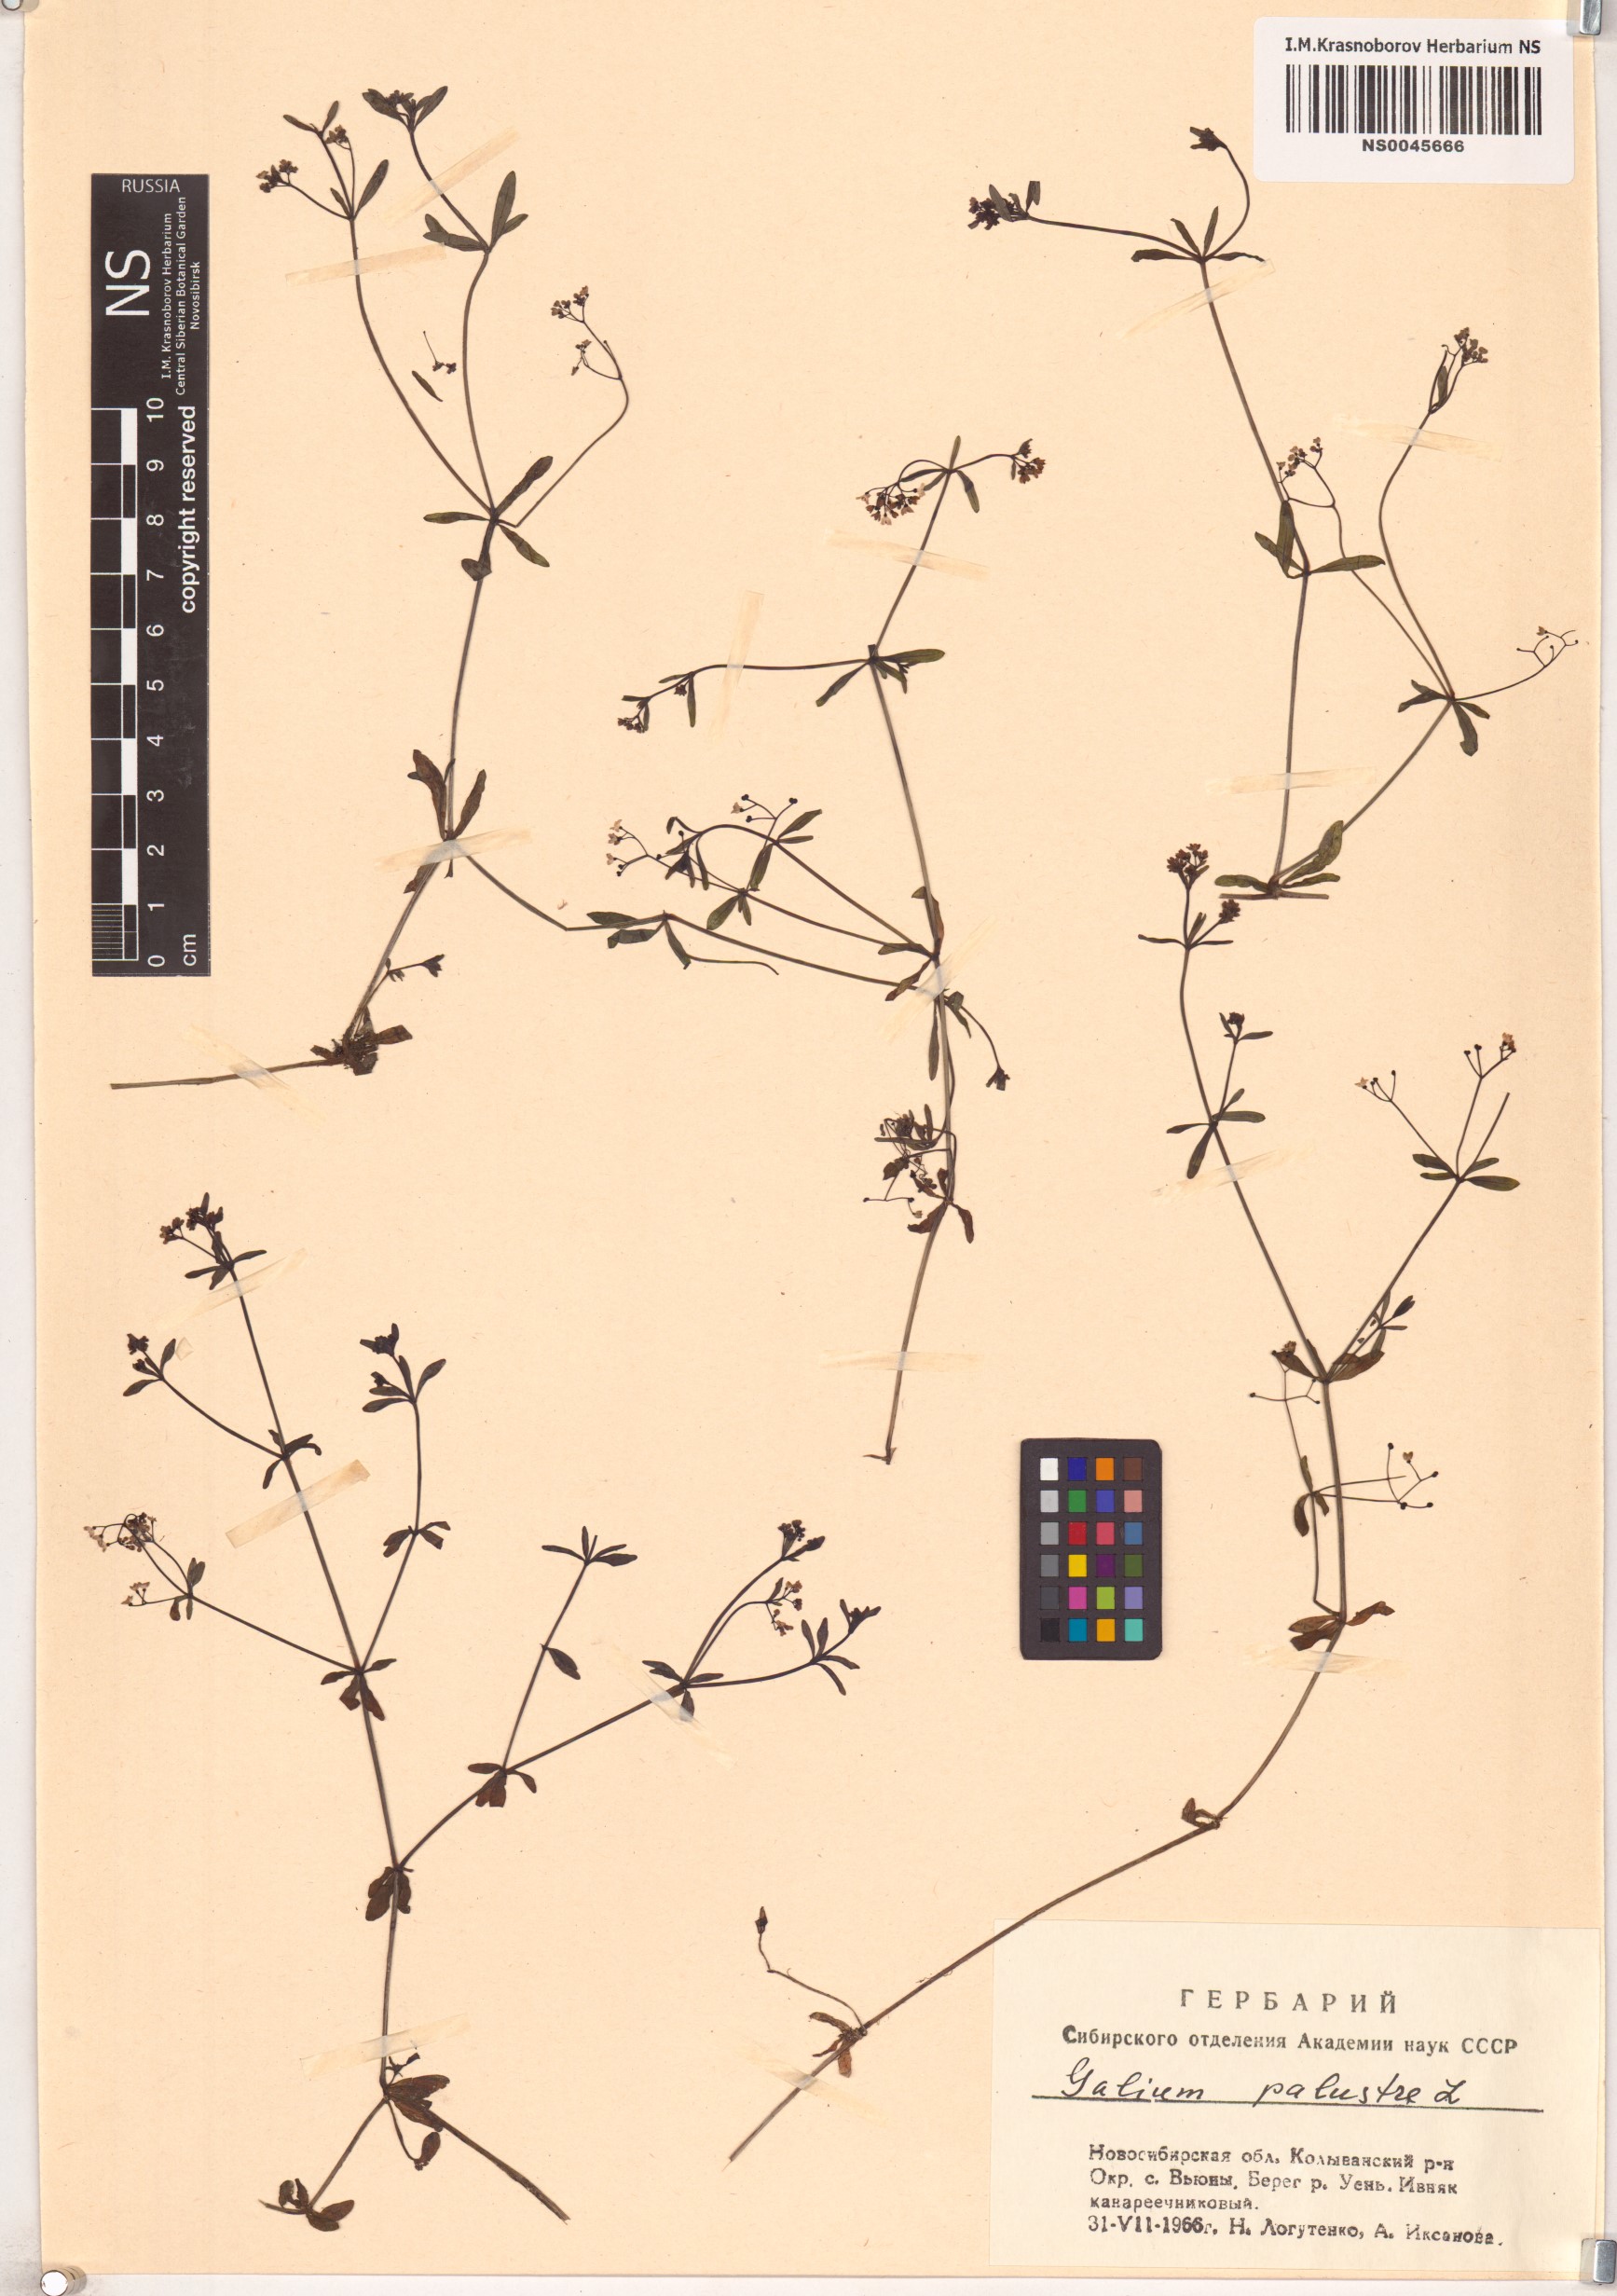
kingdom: Plantae
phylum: Tracheophyta
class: Magnoliopsida
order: Gentianales
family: Rubiaceae
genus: Galium
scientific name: Galium palustre
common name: Common marsh-bedstraw
